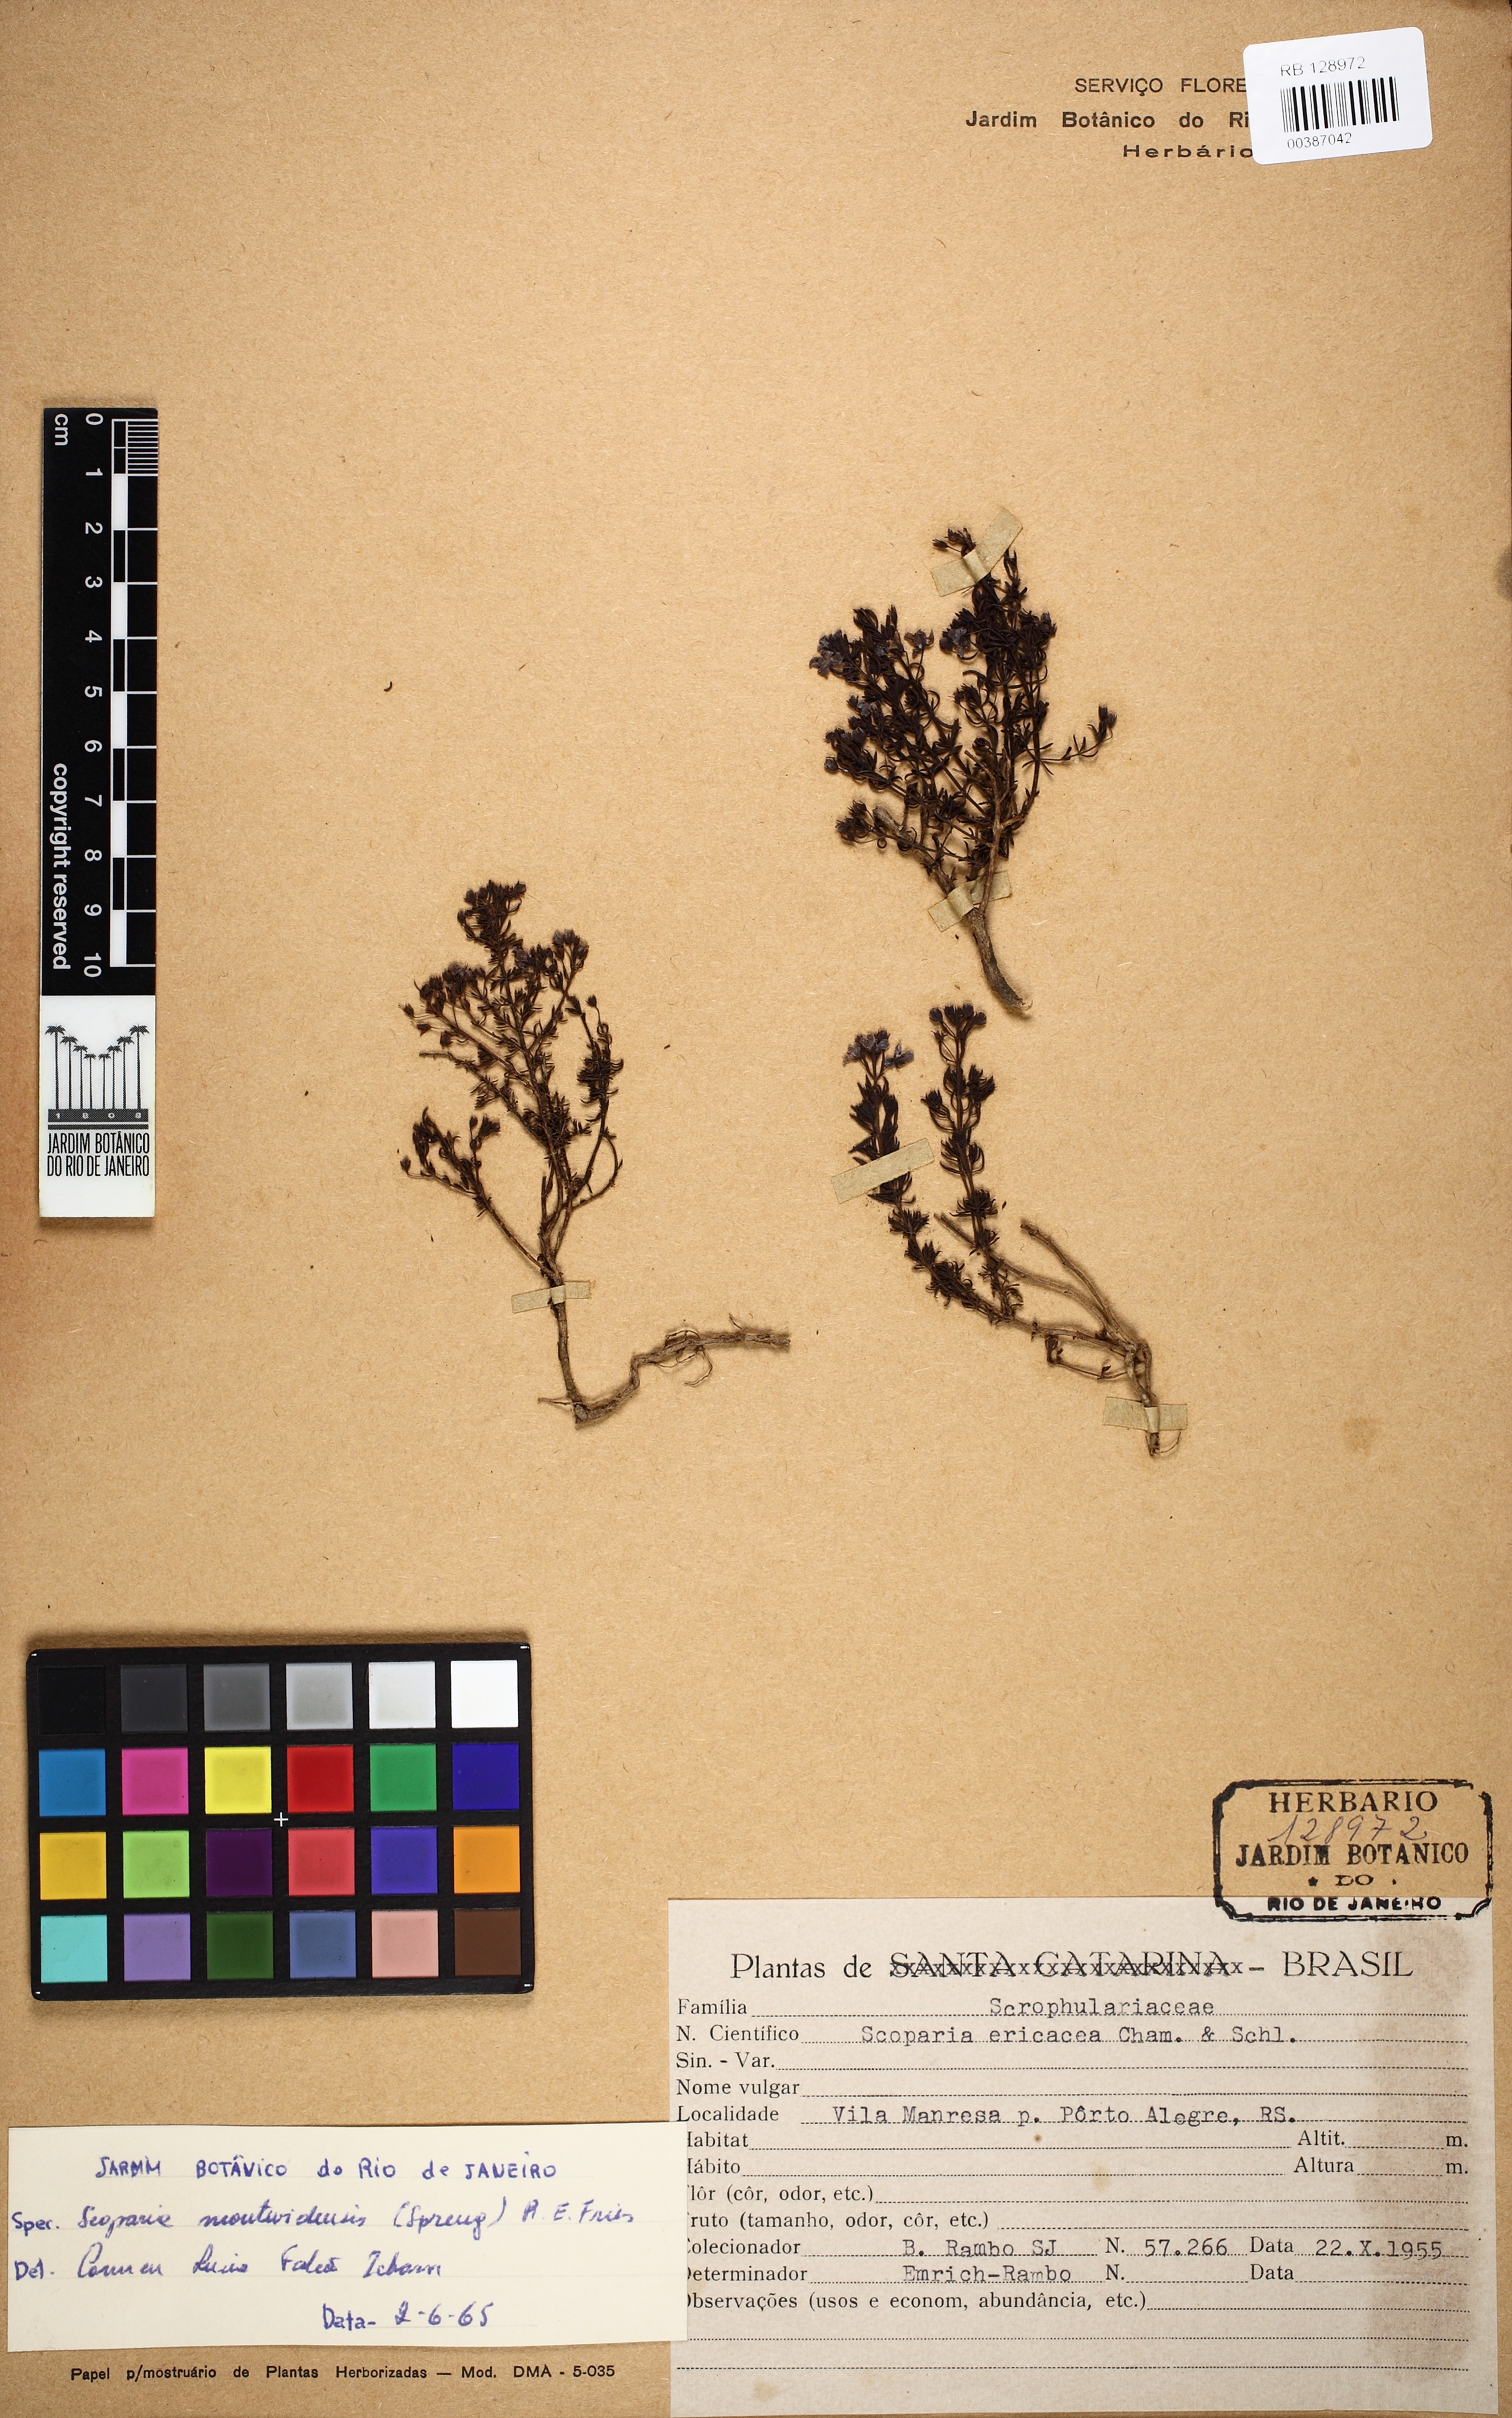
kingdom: Plantae
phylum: Tracheophyta
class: Magnoliopsida
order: Lamiales
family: Plantaginaceae
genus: Scoparia
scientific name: Scoparia montevidensis
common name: Broomwort
